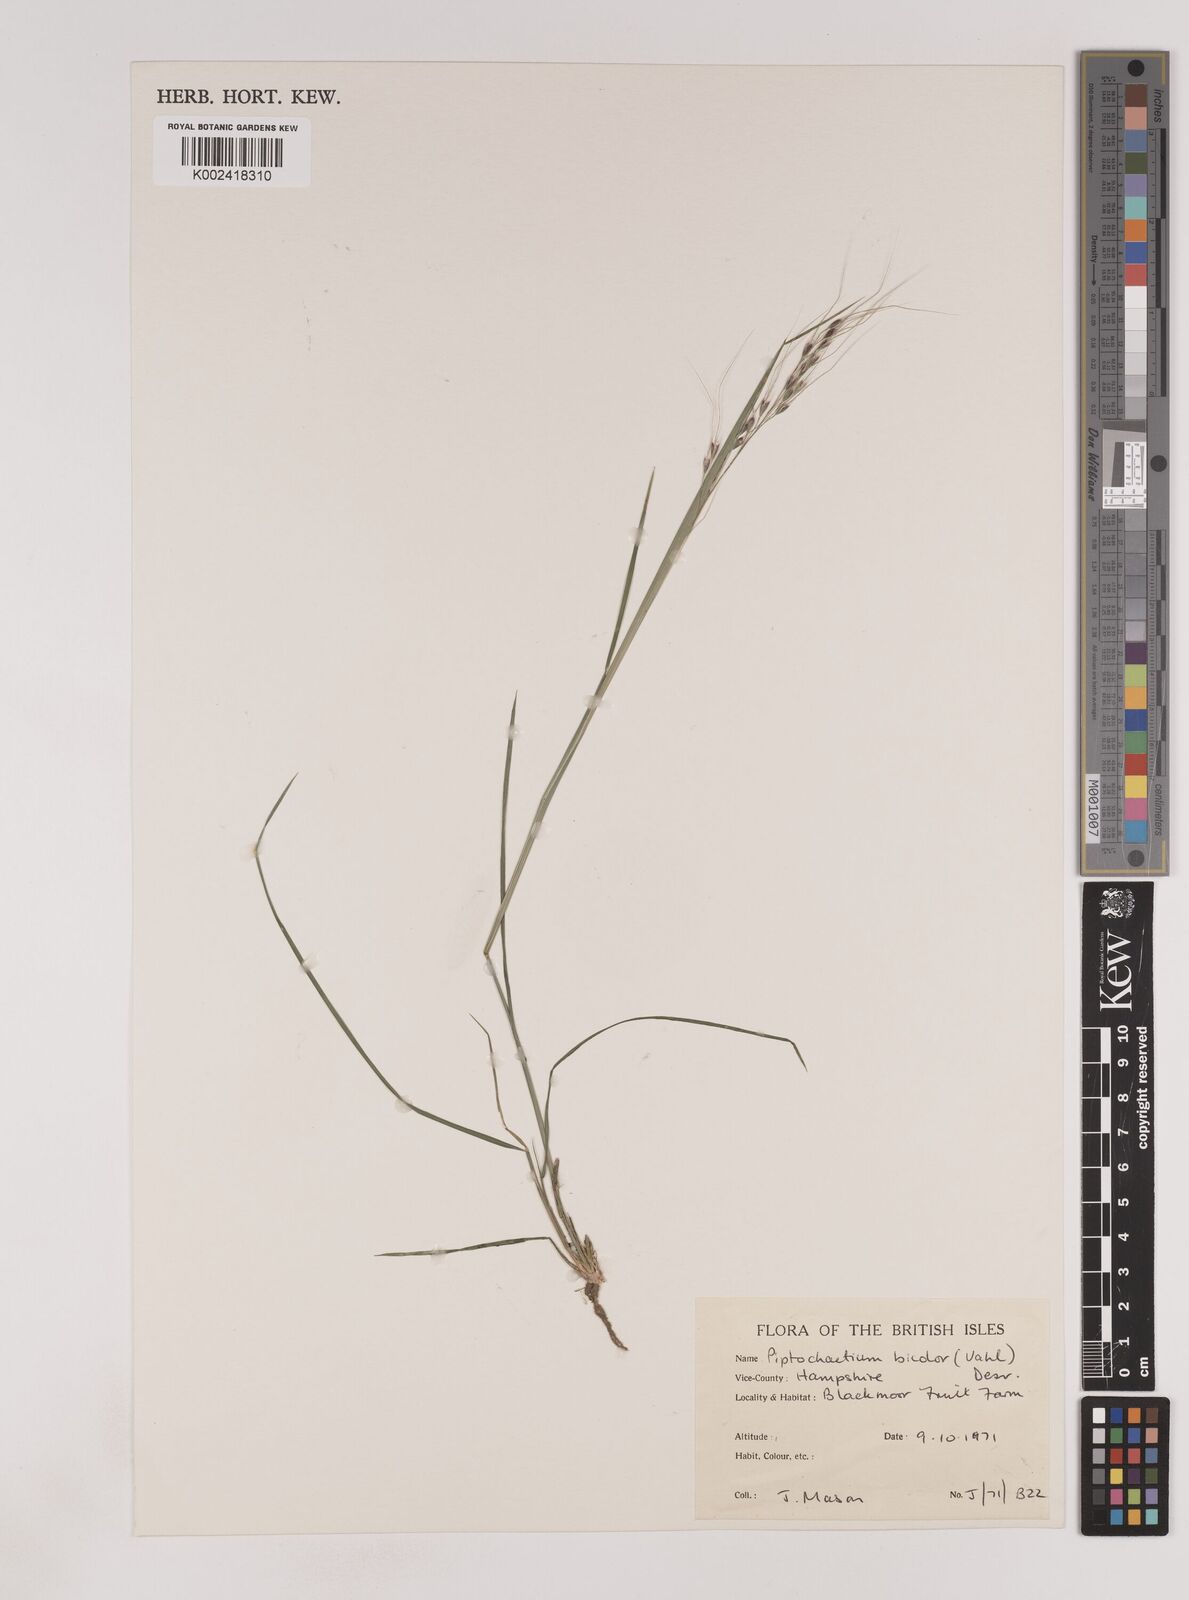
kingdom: Plantae
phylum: Tracheophyta
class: Liliopsida
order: Poales
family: Poaceae
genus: Piptochaetium
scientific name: Piptochaetium bicolor
